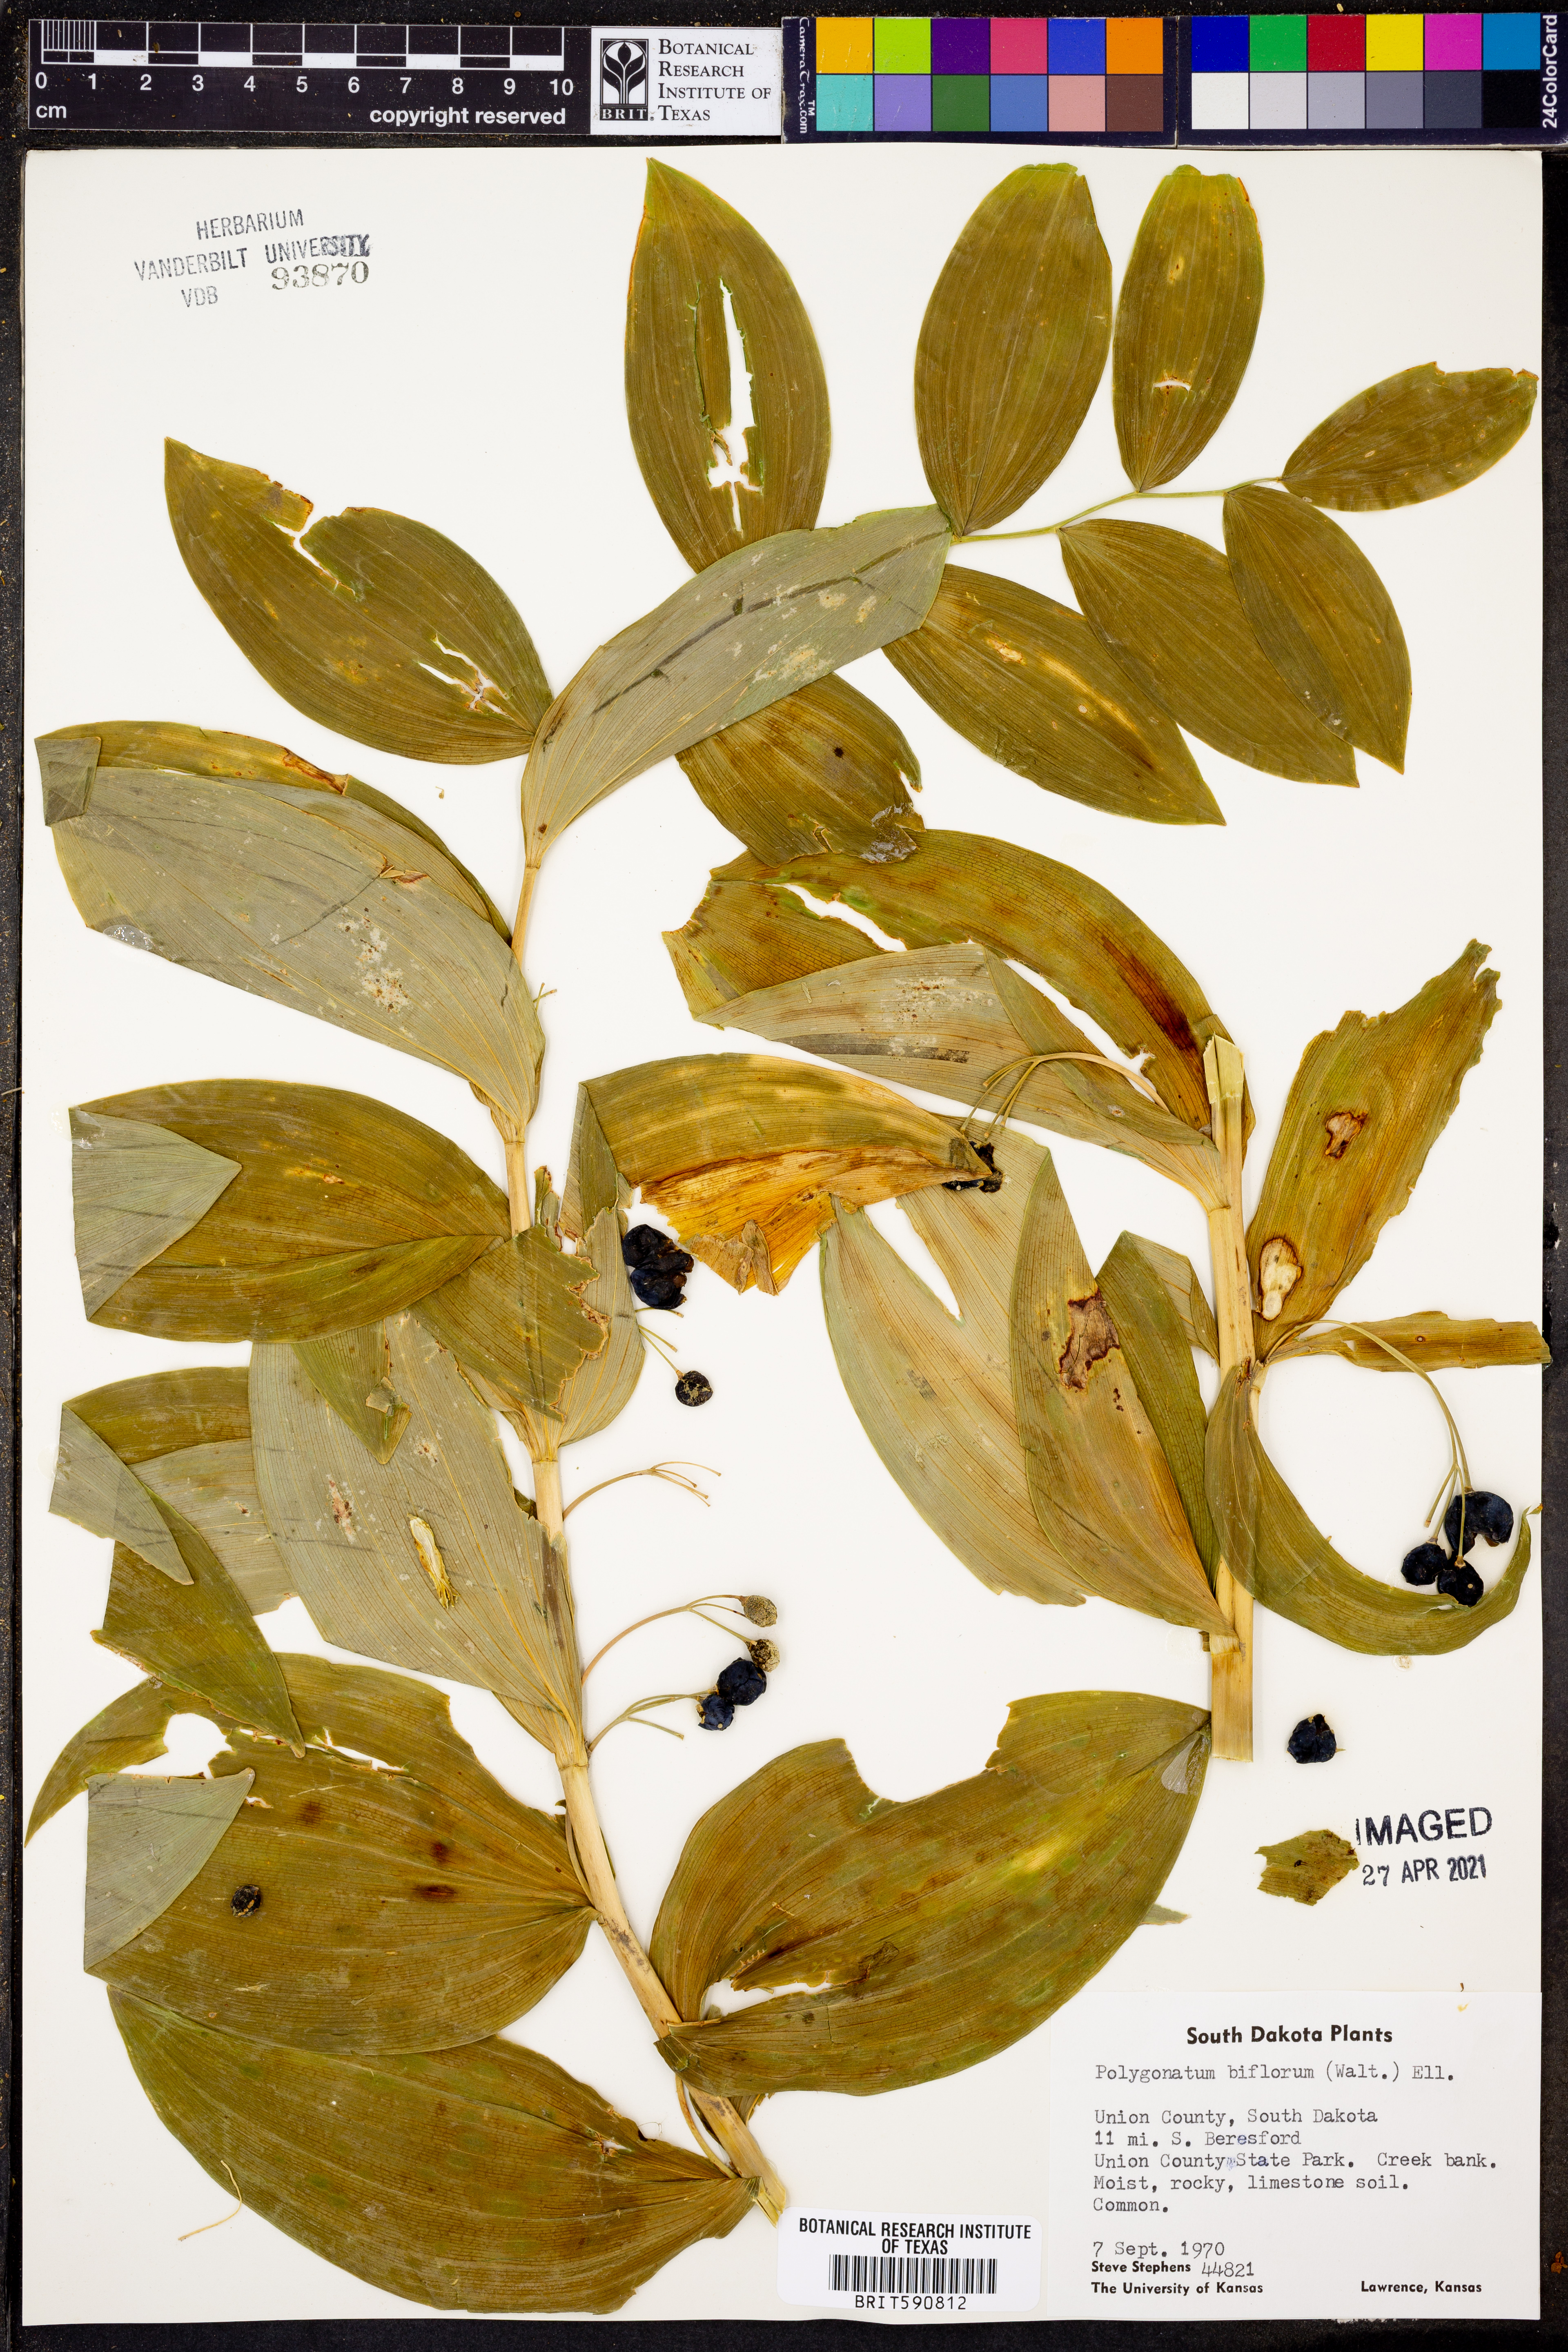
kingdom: Plantae
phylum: Tracheophyta
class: Liliopsida
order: Asparagales
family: Asparagaceae
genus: Polygonatum
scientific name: Polygonatum biflorum
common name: American solomon's-seal
